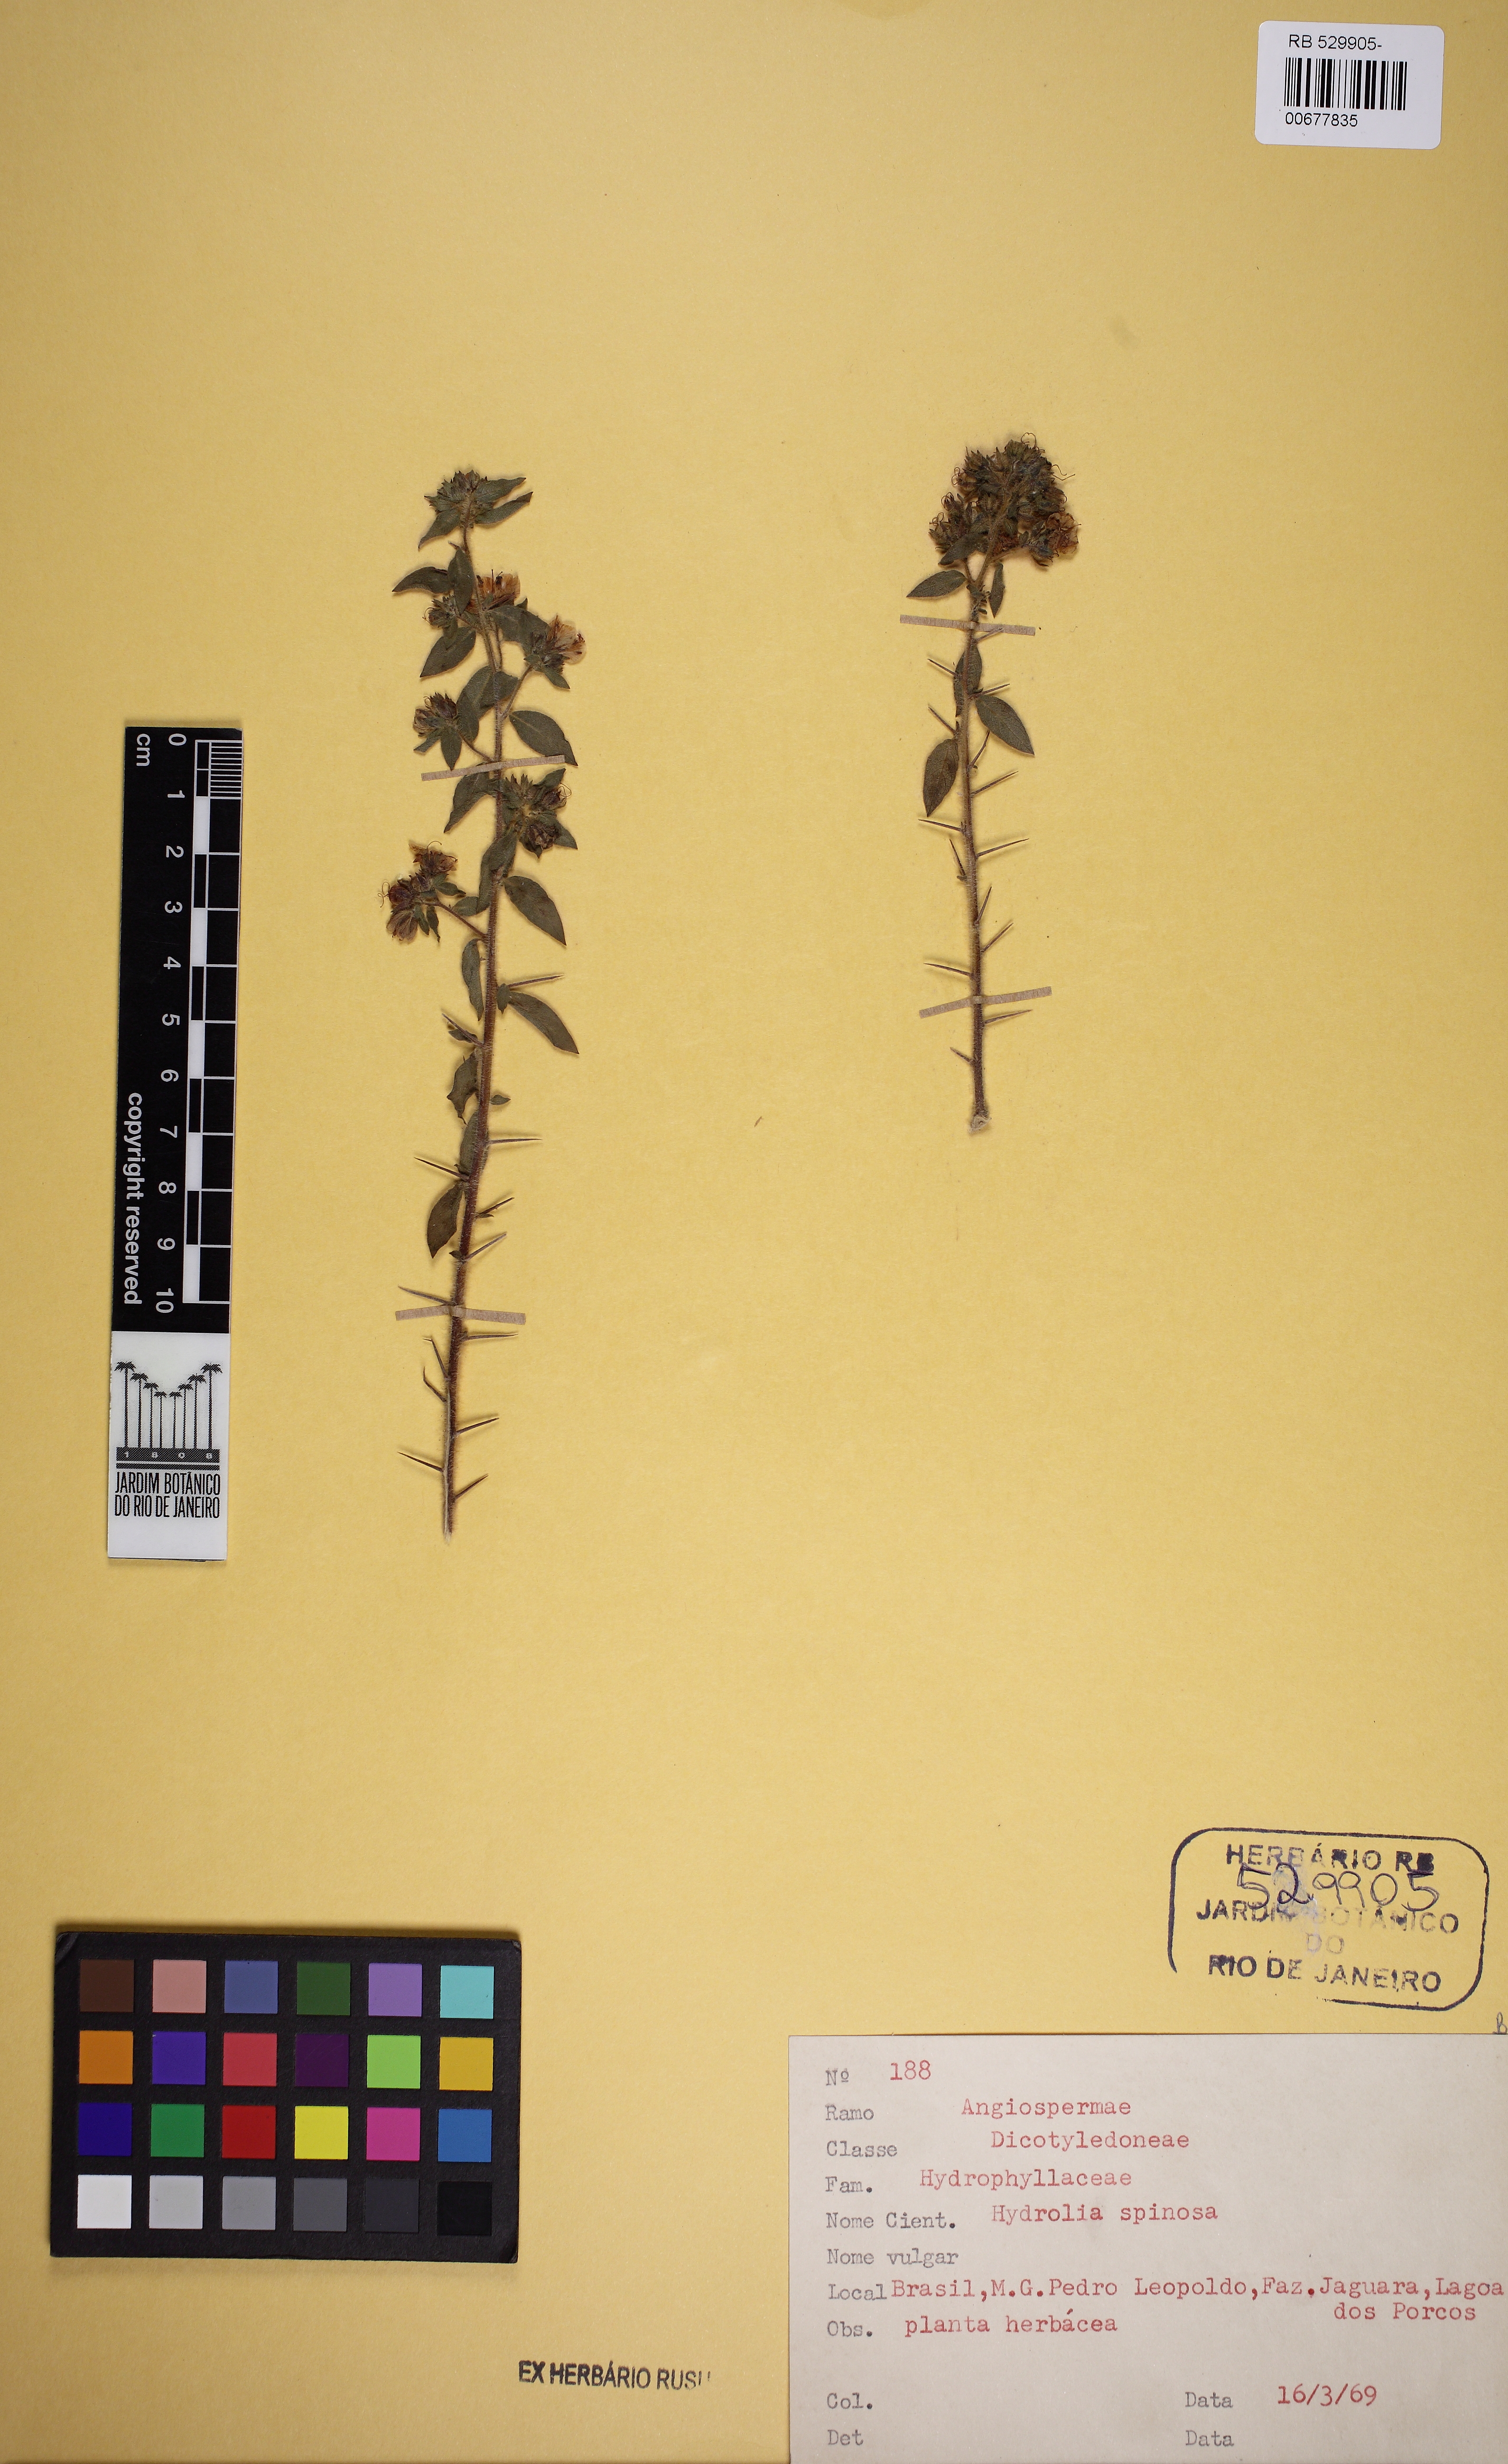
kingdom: Plantae
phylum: Tracheophyta
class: Magnoliopsida
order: Solanales
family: Hydroleaceae
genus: Hydrolea
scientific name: Hydrolea spinosa
